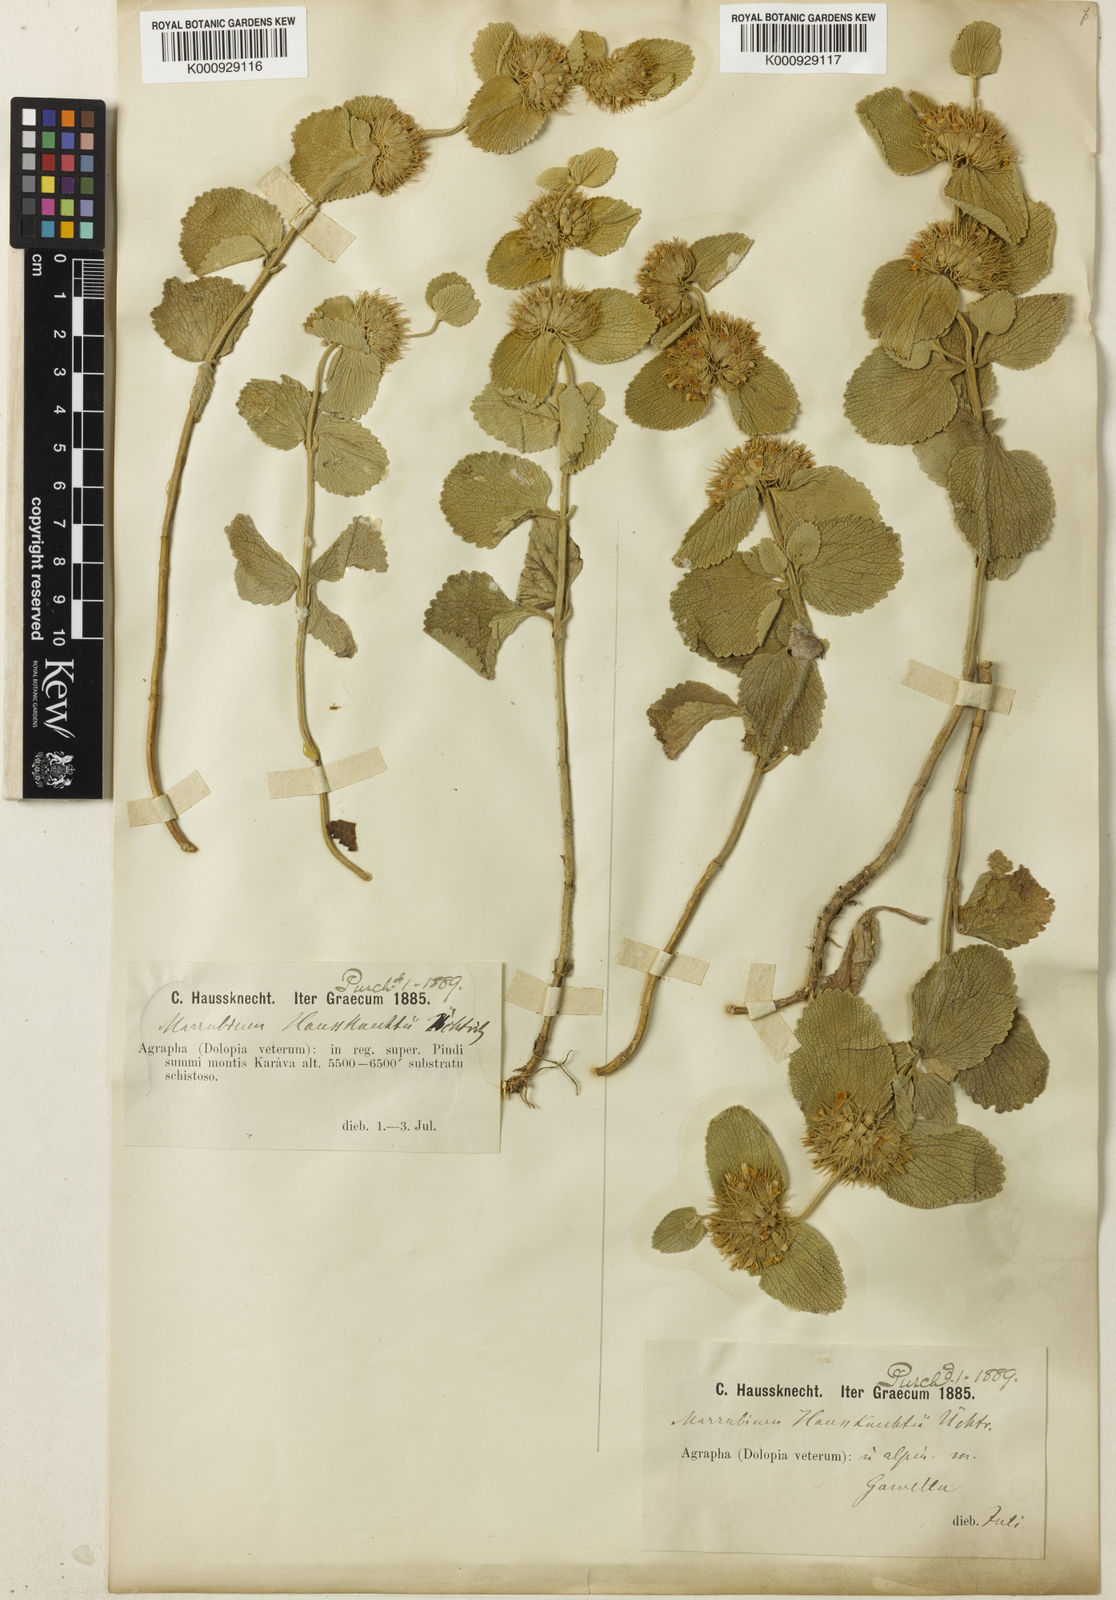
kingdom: Plantae
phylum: Tracheophyta
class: Magnoliopsida
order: Lamiales
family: Lamiaceae
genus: Marrubium
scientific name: Marrubium
